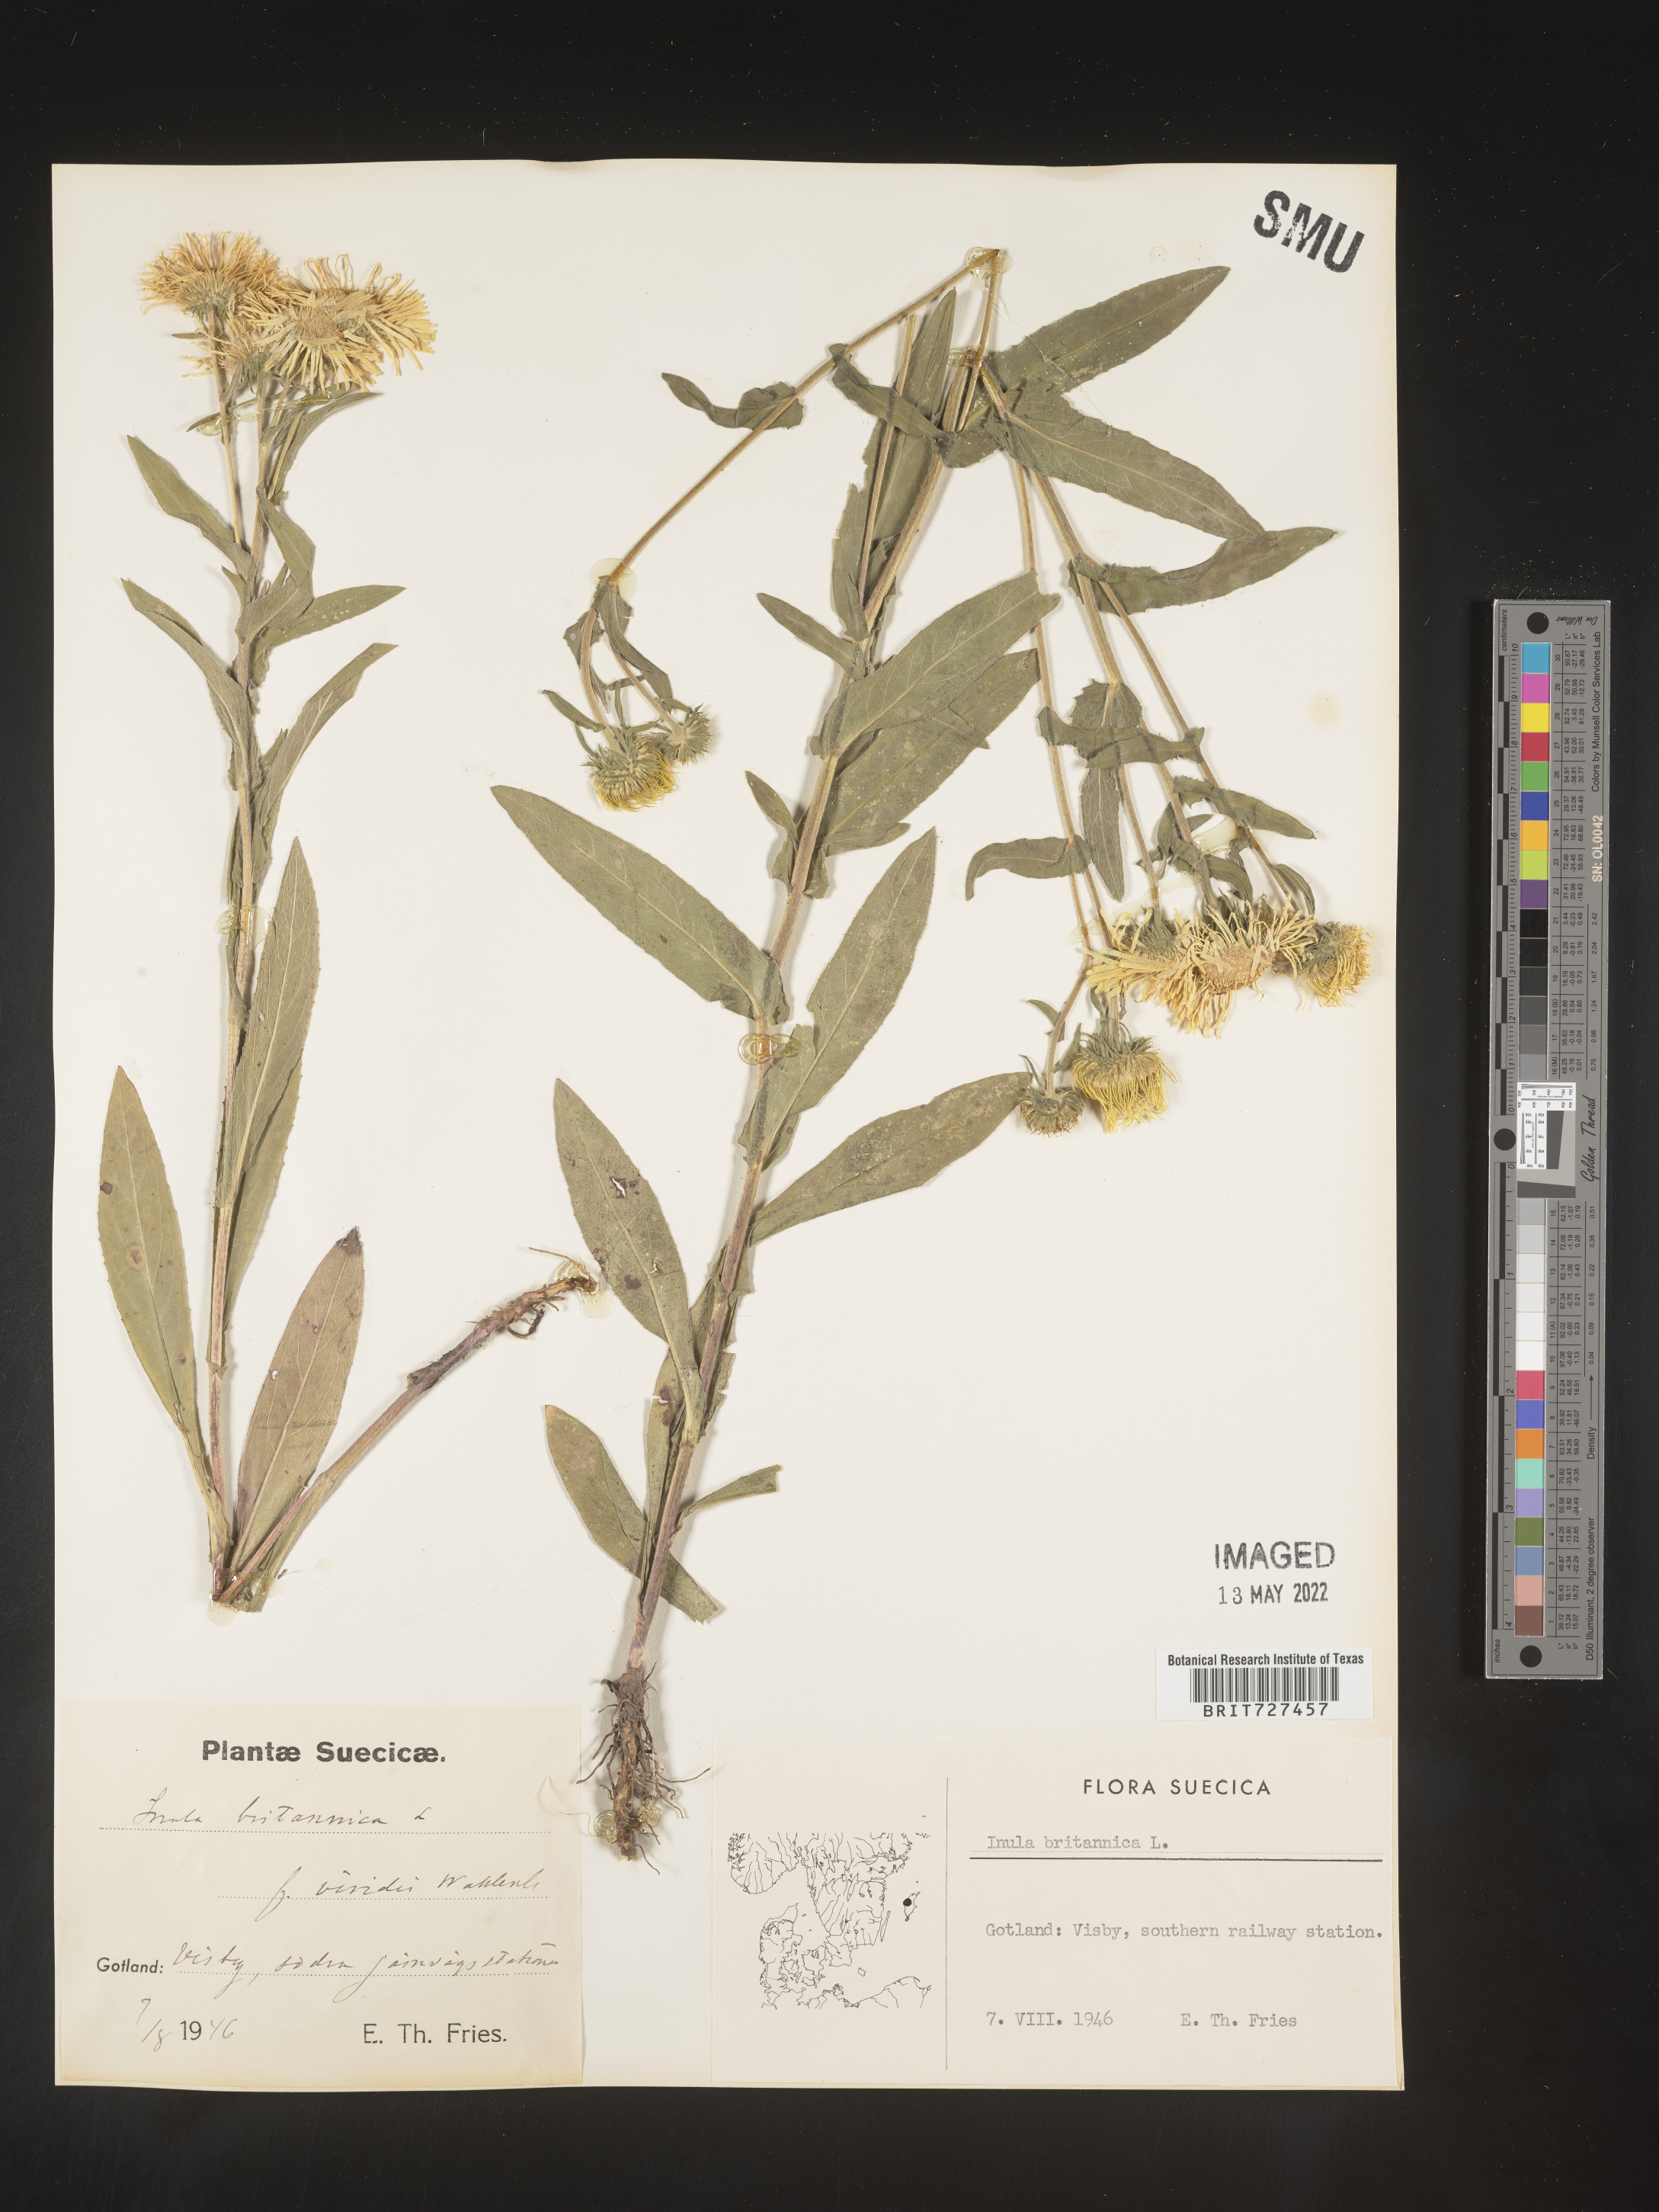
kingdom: Plantae
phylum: Tracheophyta
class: Magnoliopsida
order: Asterales
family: Asteraceae
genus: Inula
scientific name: Inula
